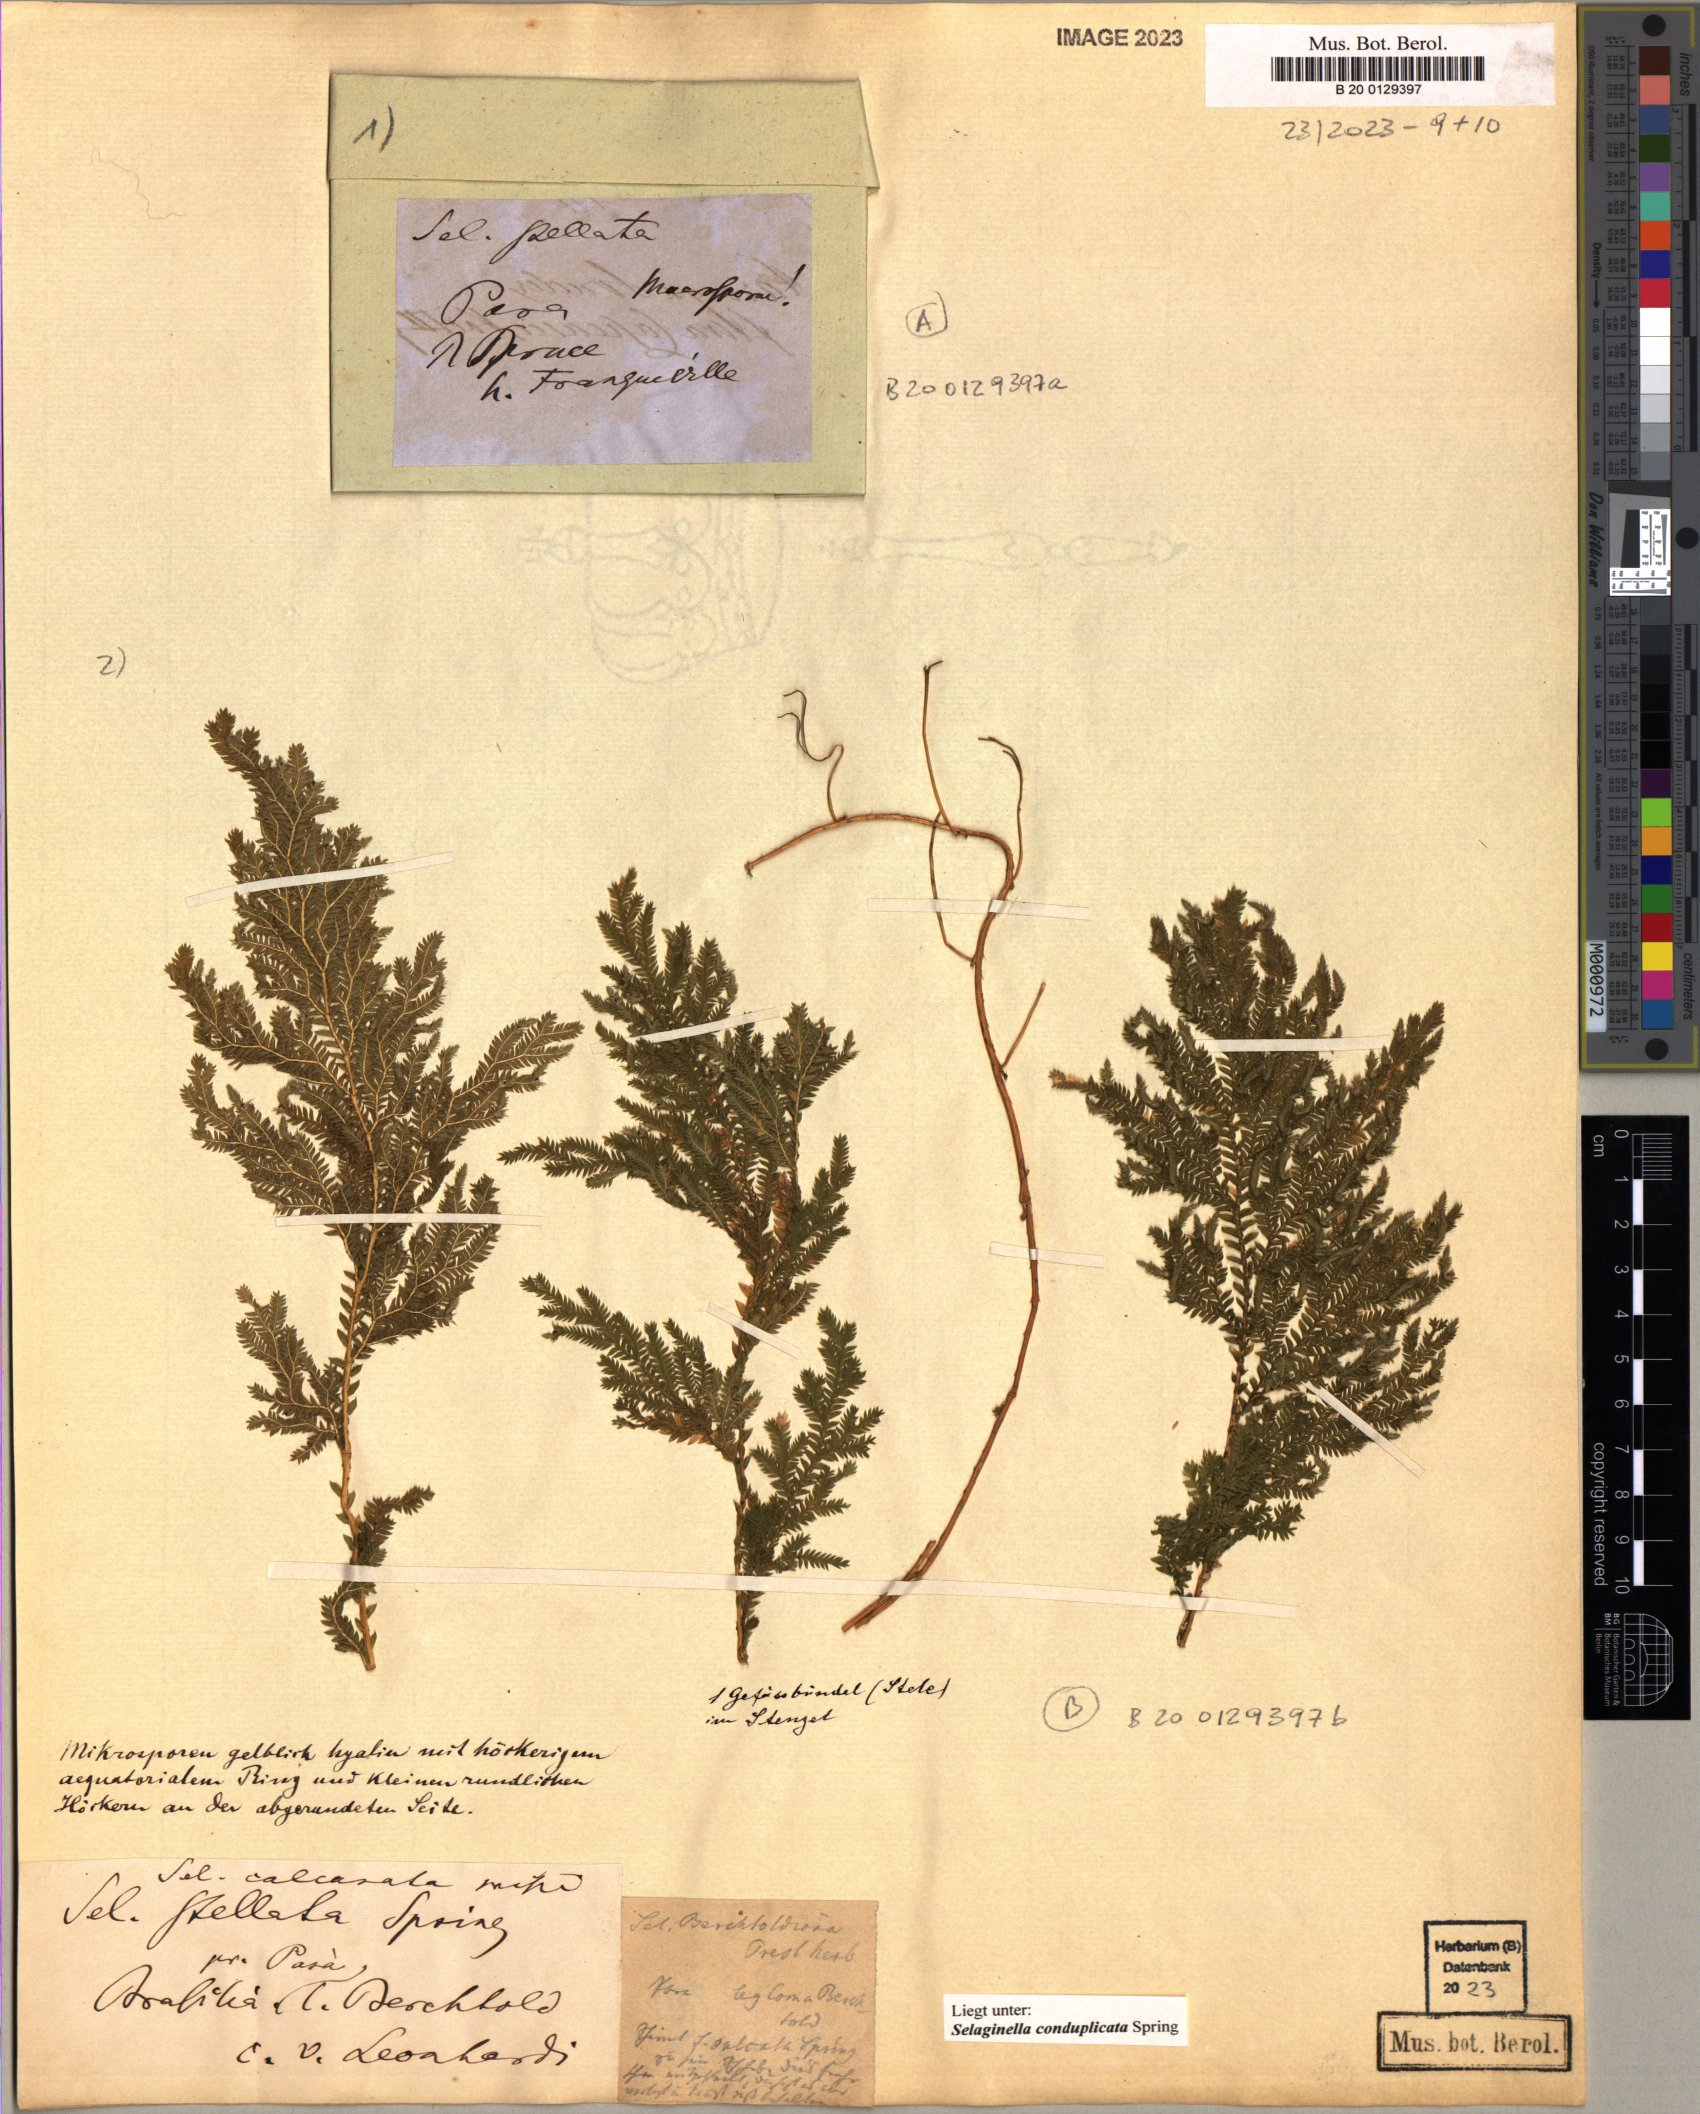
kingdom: Plantae
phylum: Tracheophyta
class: Lycopodiopsida
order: Selaginellales
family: Selaginellaceae
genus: Selaginella
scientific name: Selaginella conduplicata
